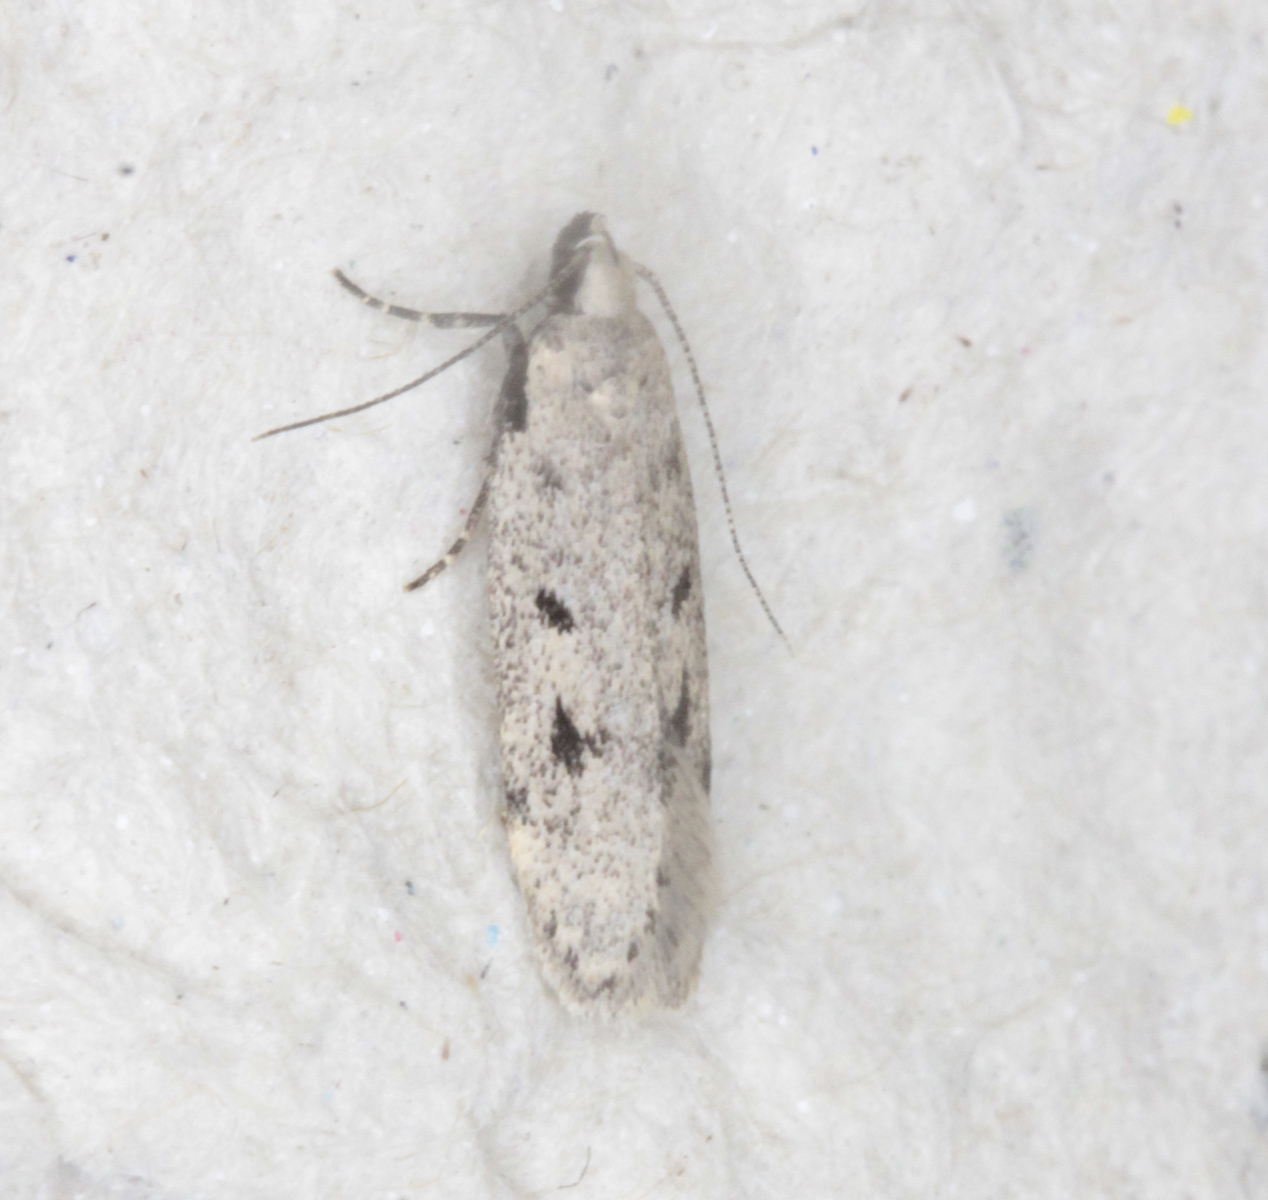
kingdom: Animalia
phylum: Arthropoda
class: Insecta
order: Lepidoptera
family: Gelechiidae
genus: Gelechia
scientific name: Gelechia rhombella
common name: Apple groundling
